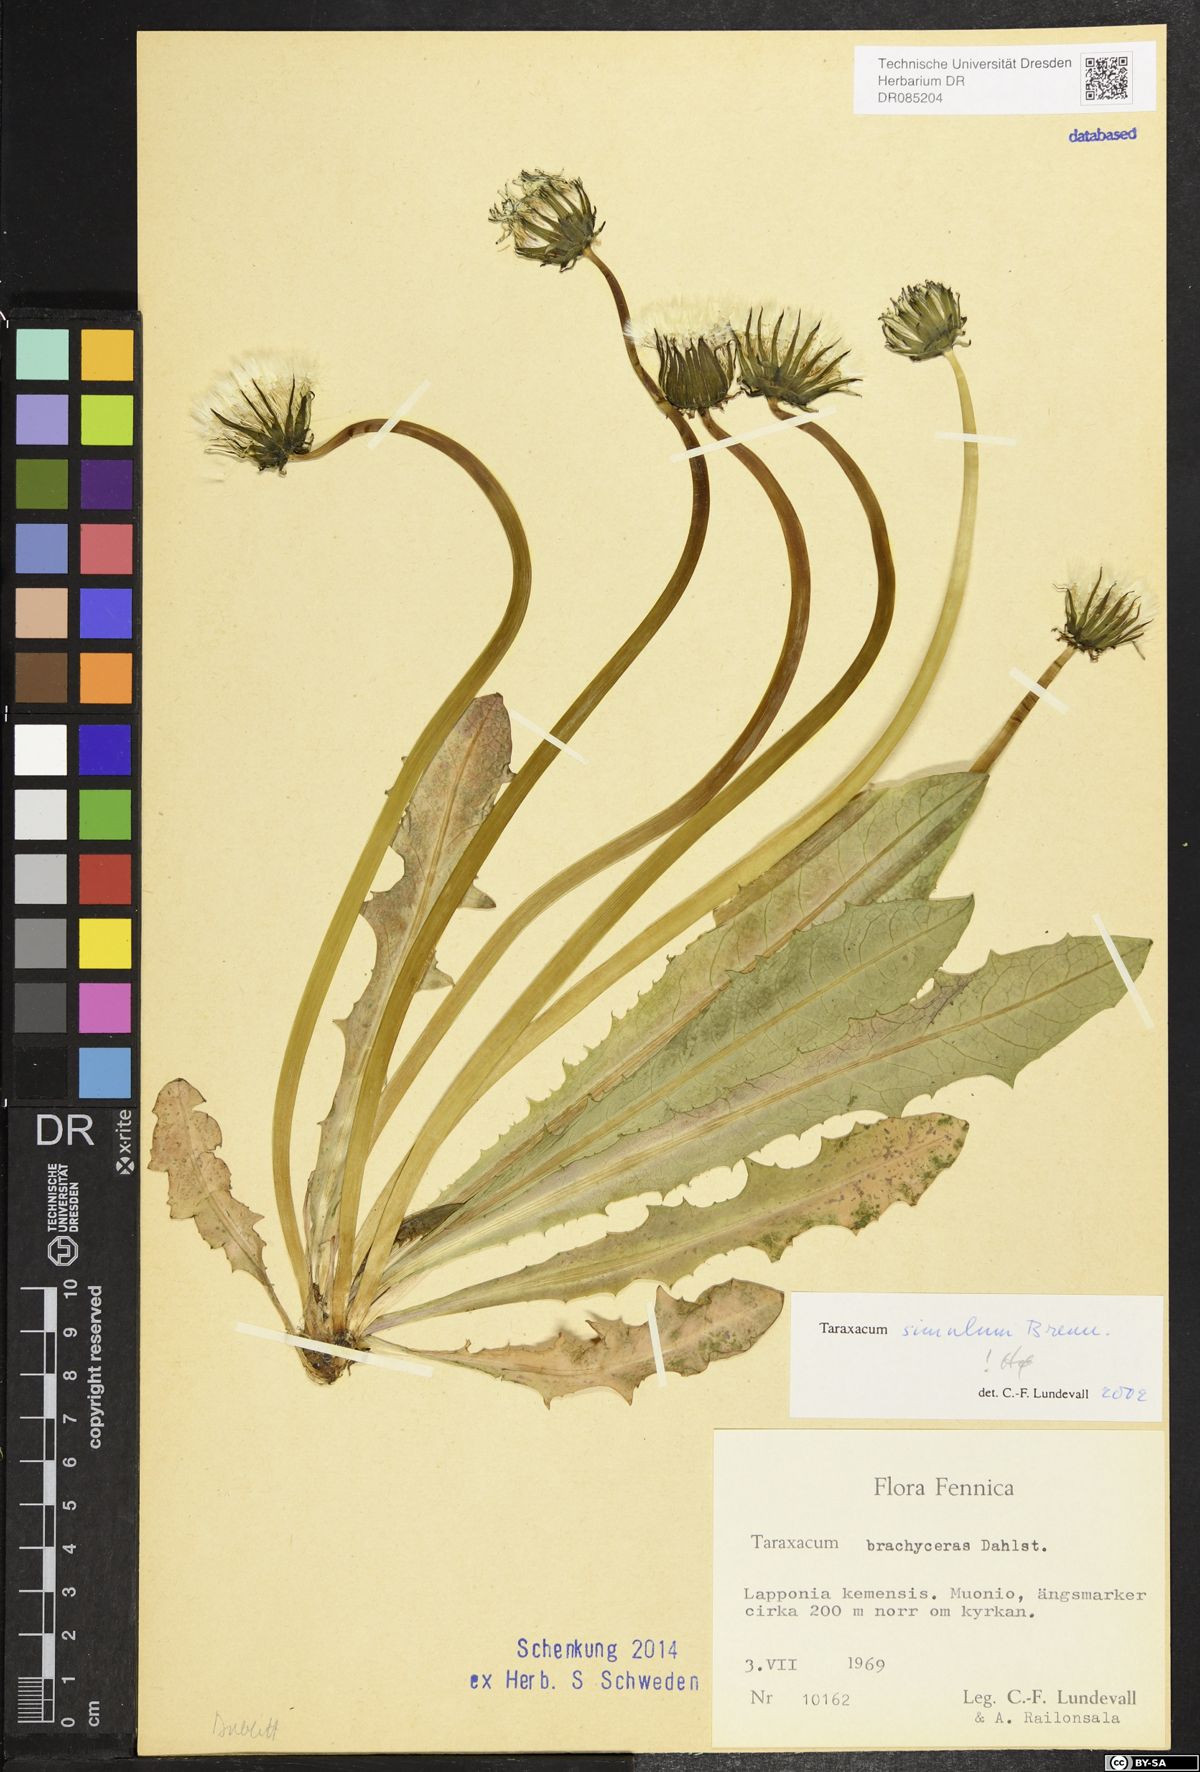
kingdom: Plantae
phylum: Tracheophyta
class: Magnoliopsida
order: Asterales
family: Asteraceae
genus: Taraxacum
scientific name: Taraxacum simulum
